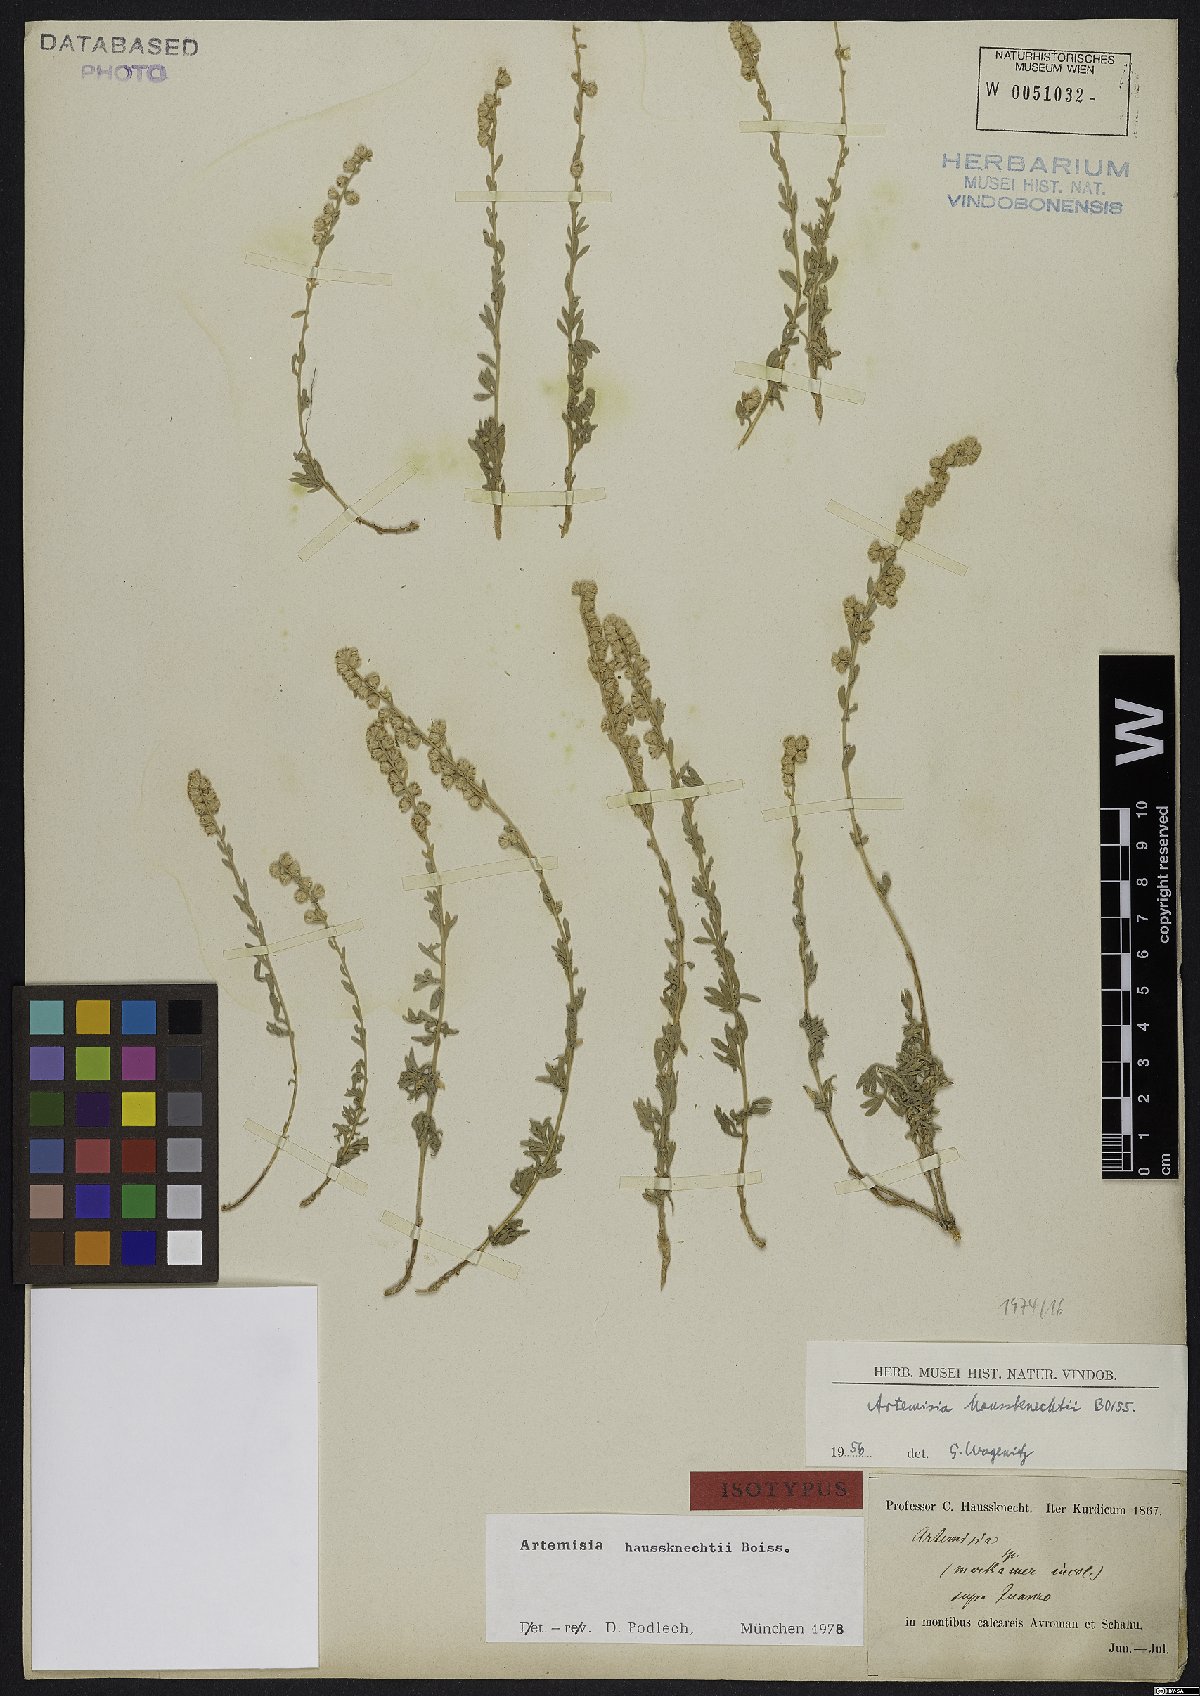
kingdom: Plantae
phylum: Tracheophyta
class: Magnoliopsida
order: Asterales
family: Asteraceae
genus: Artemisia
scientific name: Artemisia haussknechtii
